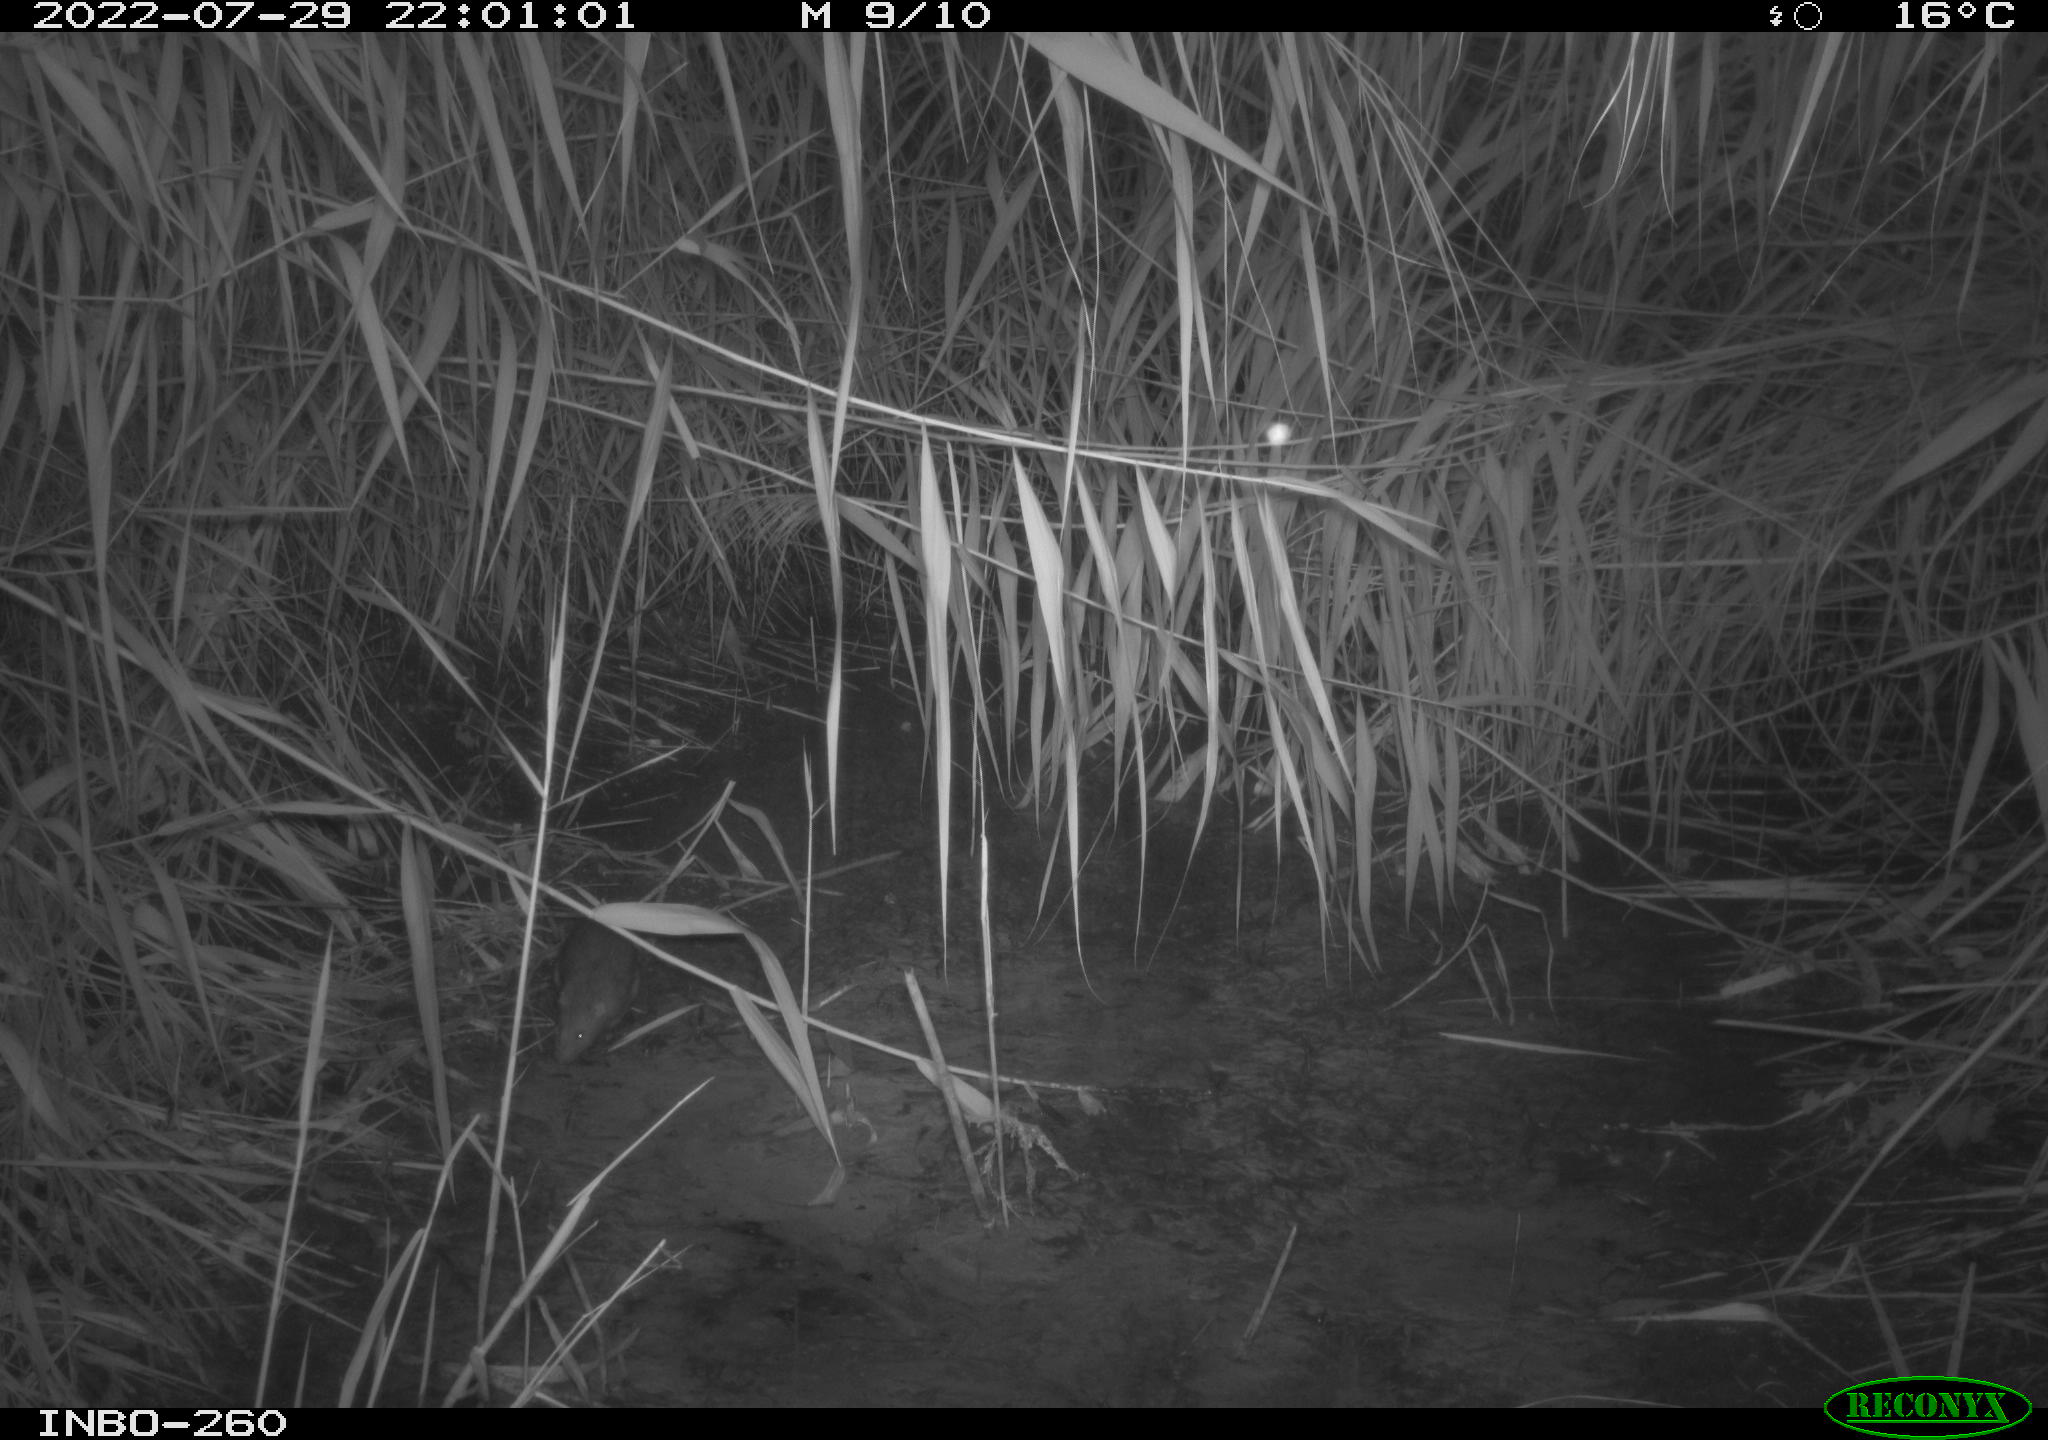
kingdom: Animalia
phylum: Chordata
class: Mammalia
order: Rodentia
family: Muridae
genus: Rattus
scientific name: Rattus norvegicus
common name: Brown rat
